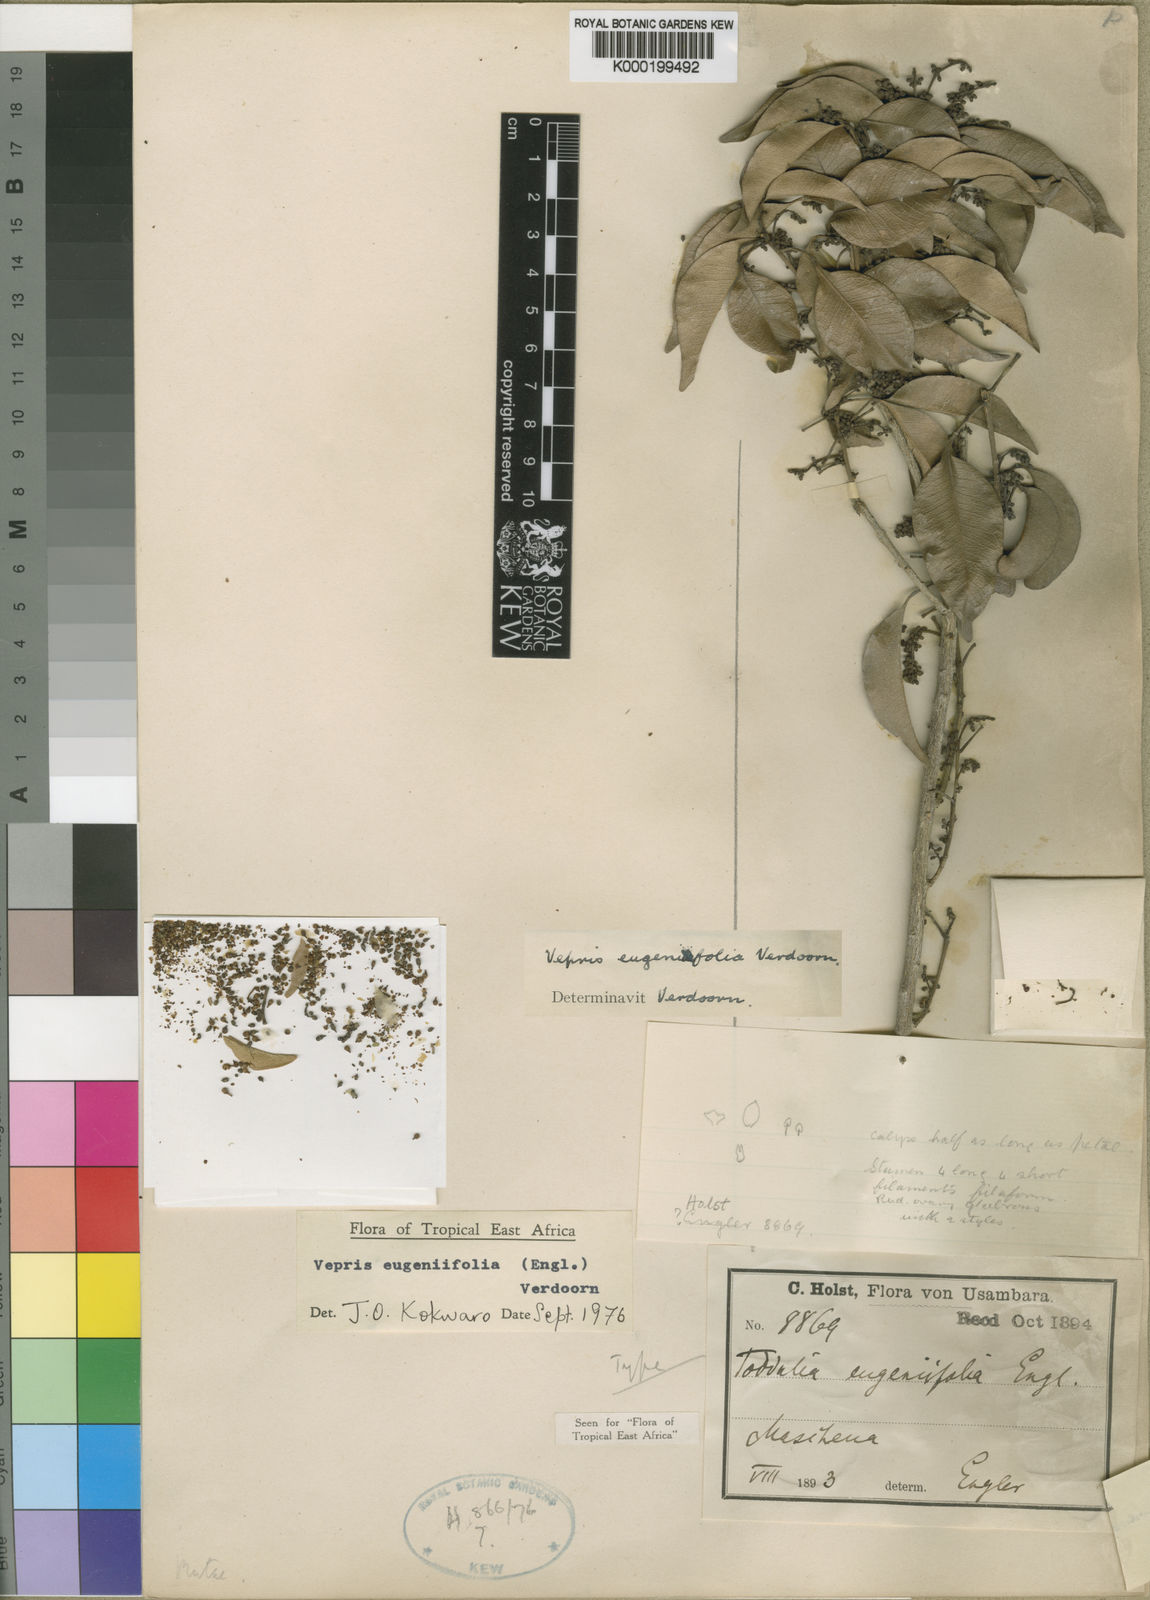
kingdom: Plantae
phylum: Tracheophyta
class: Magnoliopsida
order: Sapindales
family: Rutaceae
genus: Vepris
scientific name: Vepris eugeniifolia
